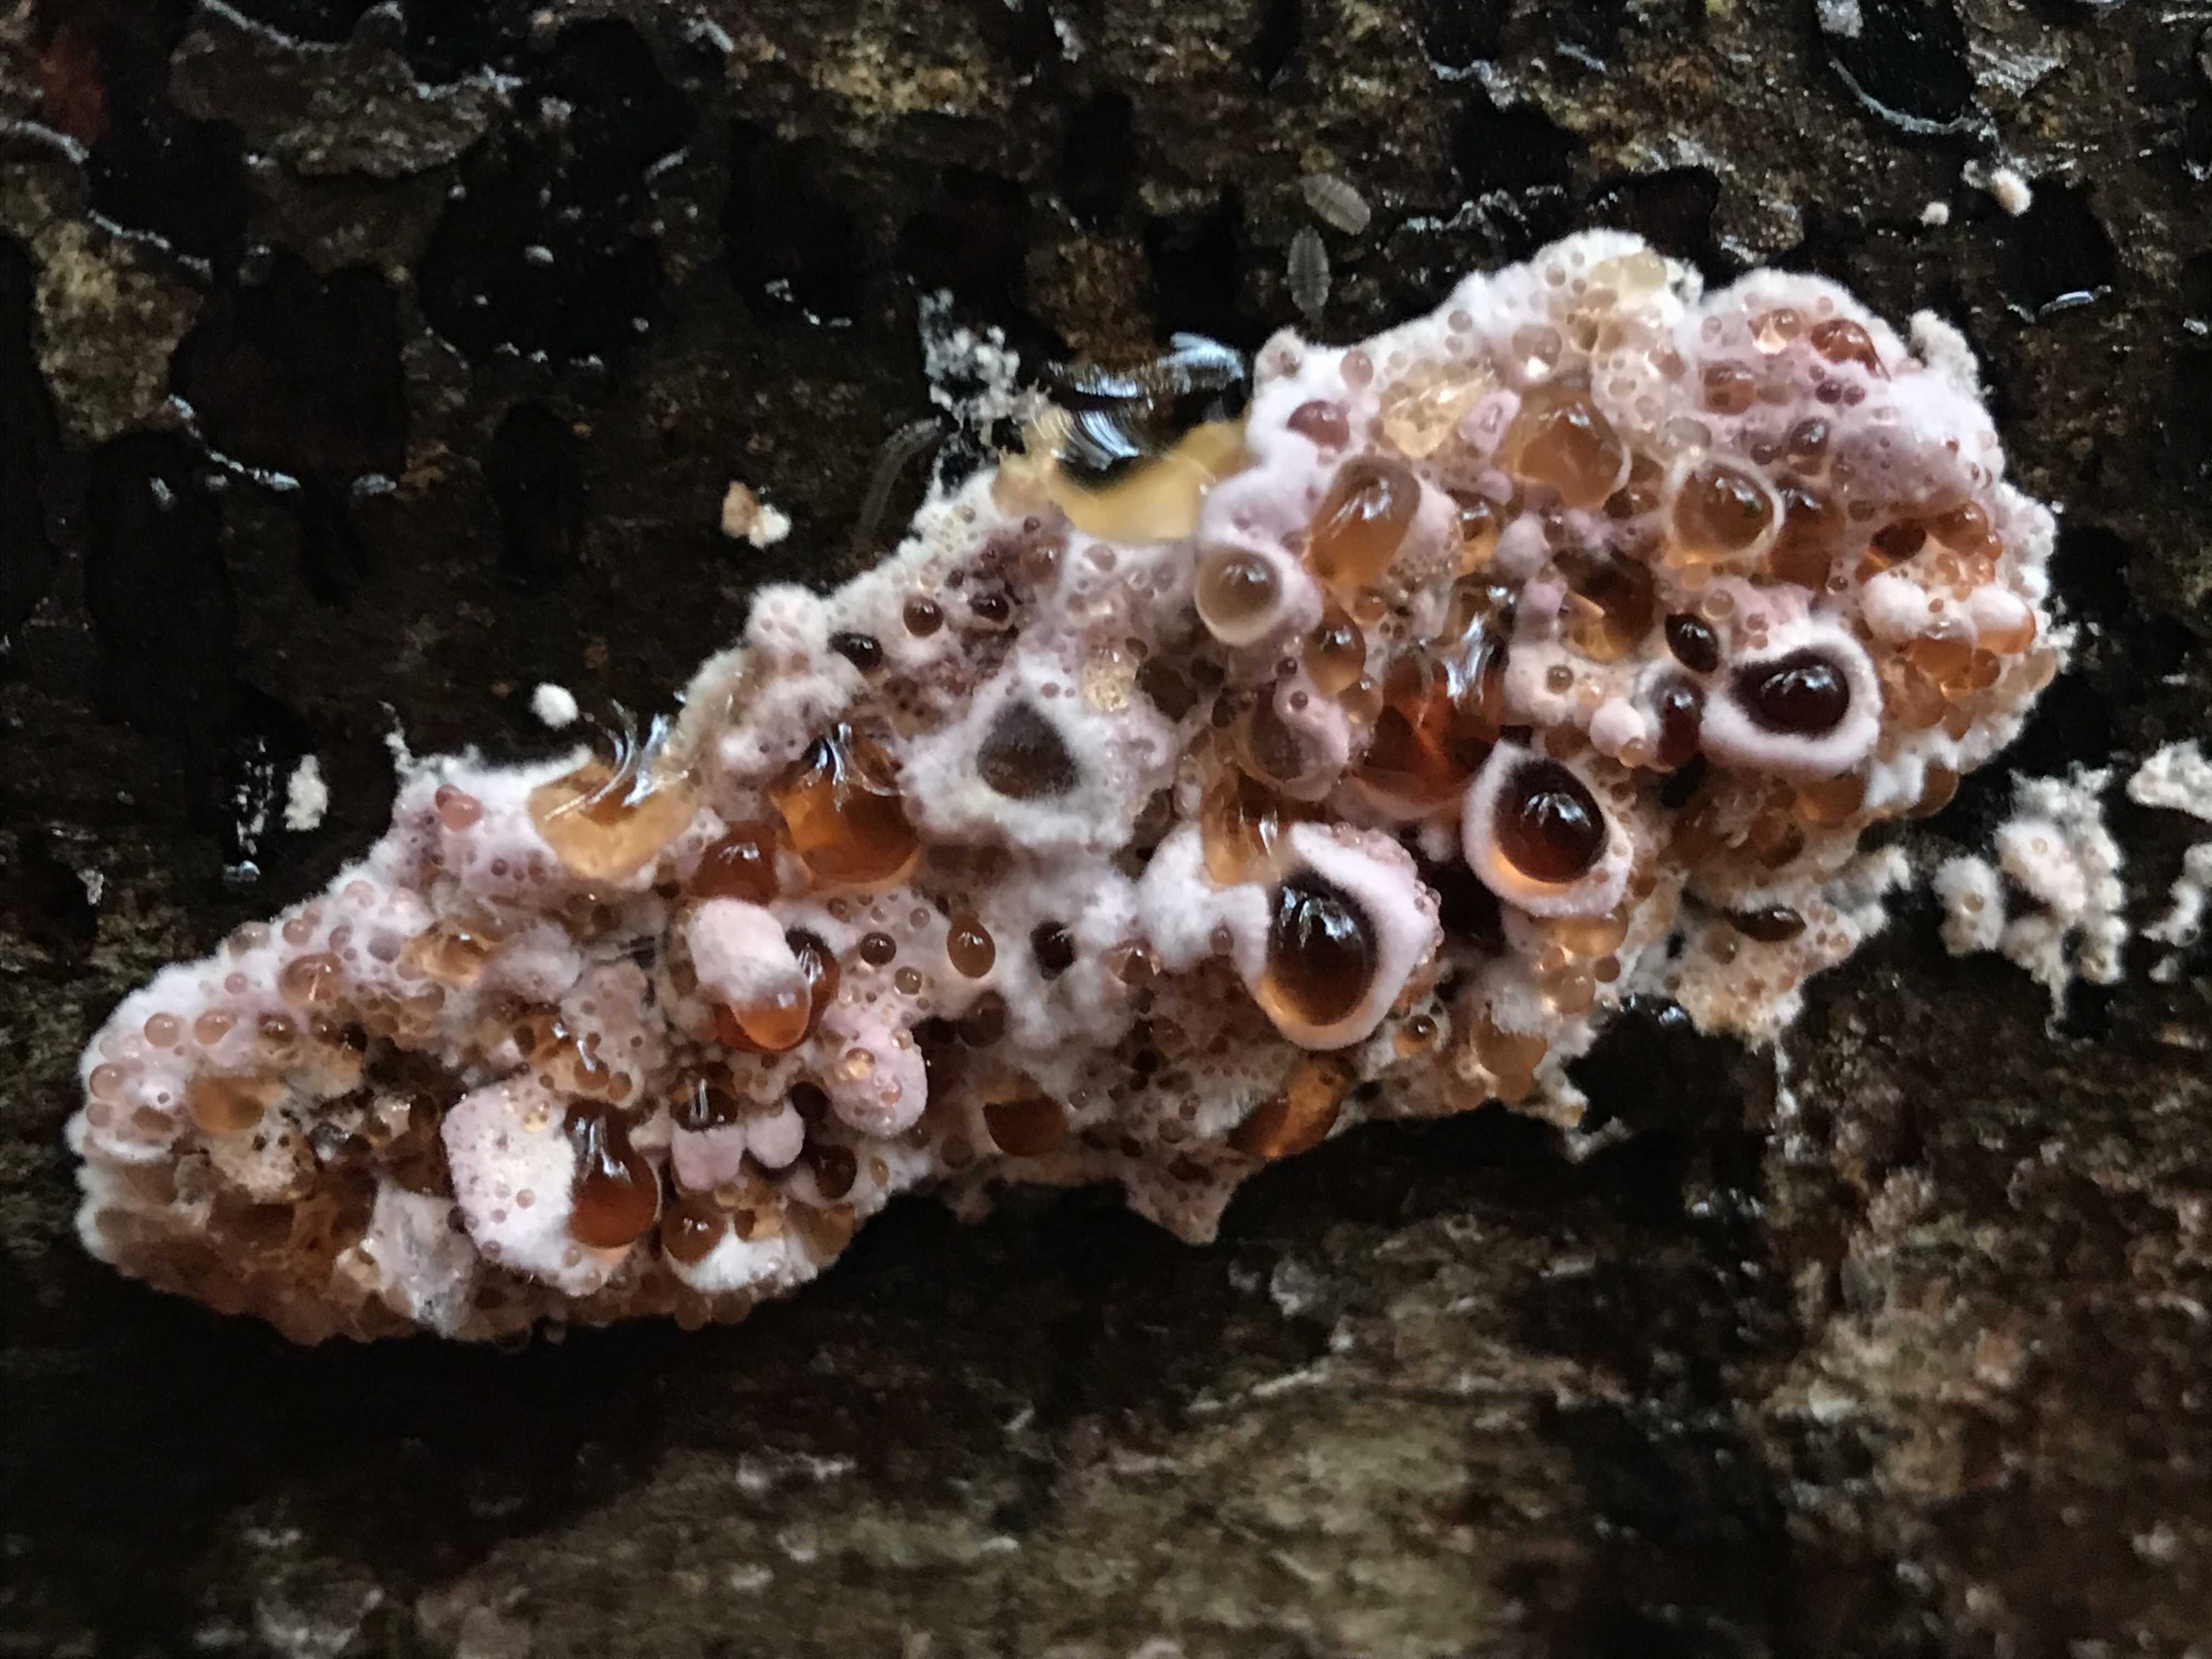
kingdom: Fungi
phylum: Basidiomycota
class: Agaricomycetes
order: Agaricales
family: Cyphellaceae
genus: Chondrostereum
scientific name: Chondrostereum purpureum
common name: purpurlædersvamp
